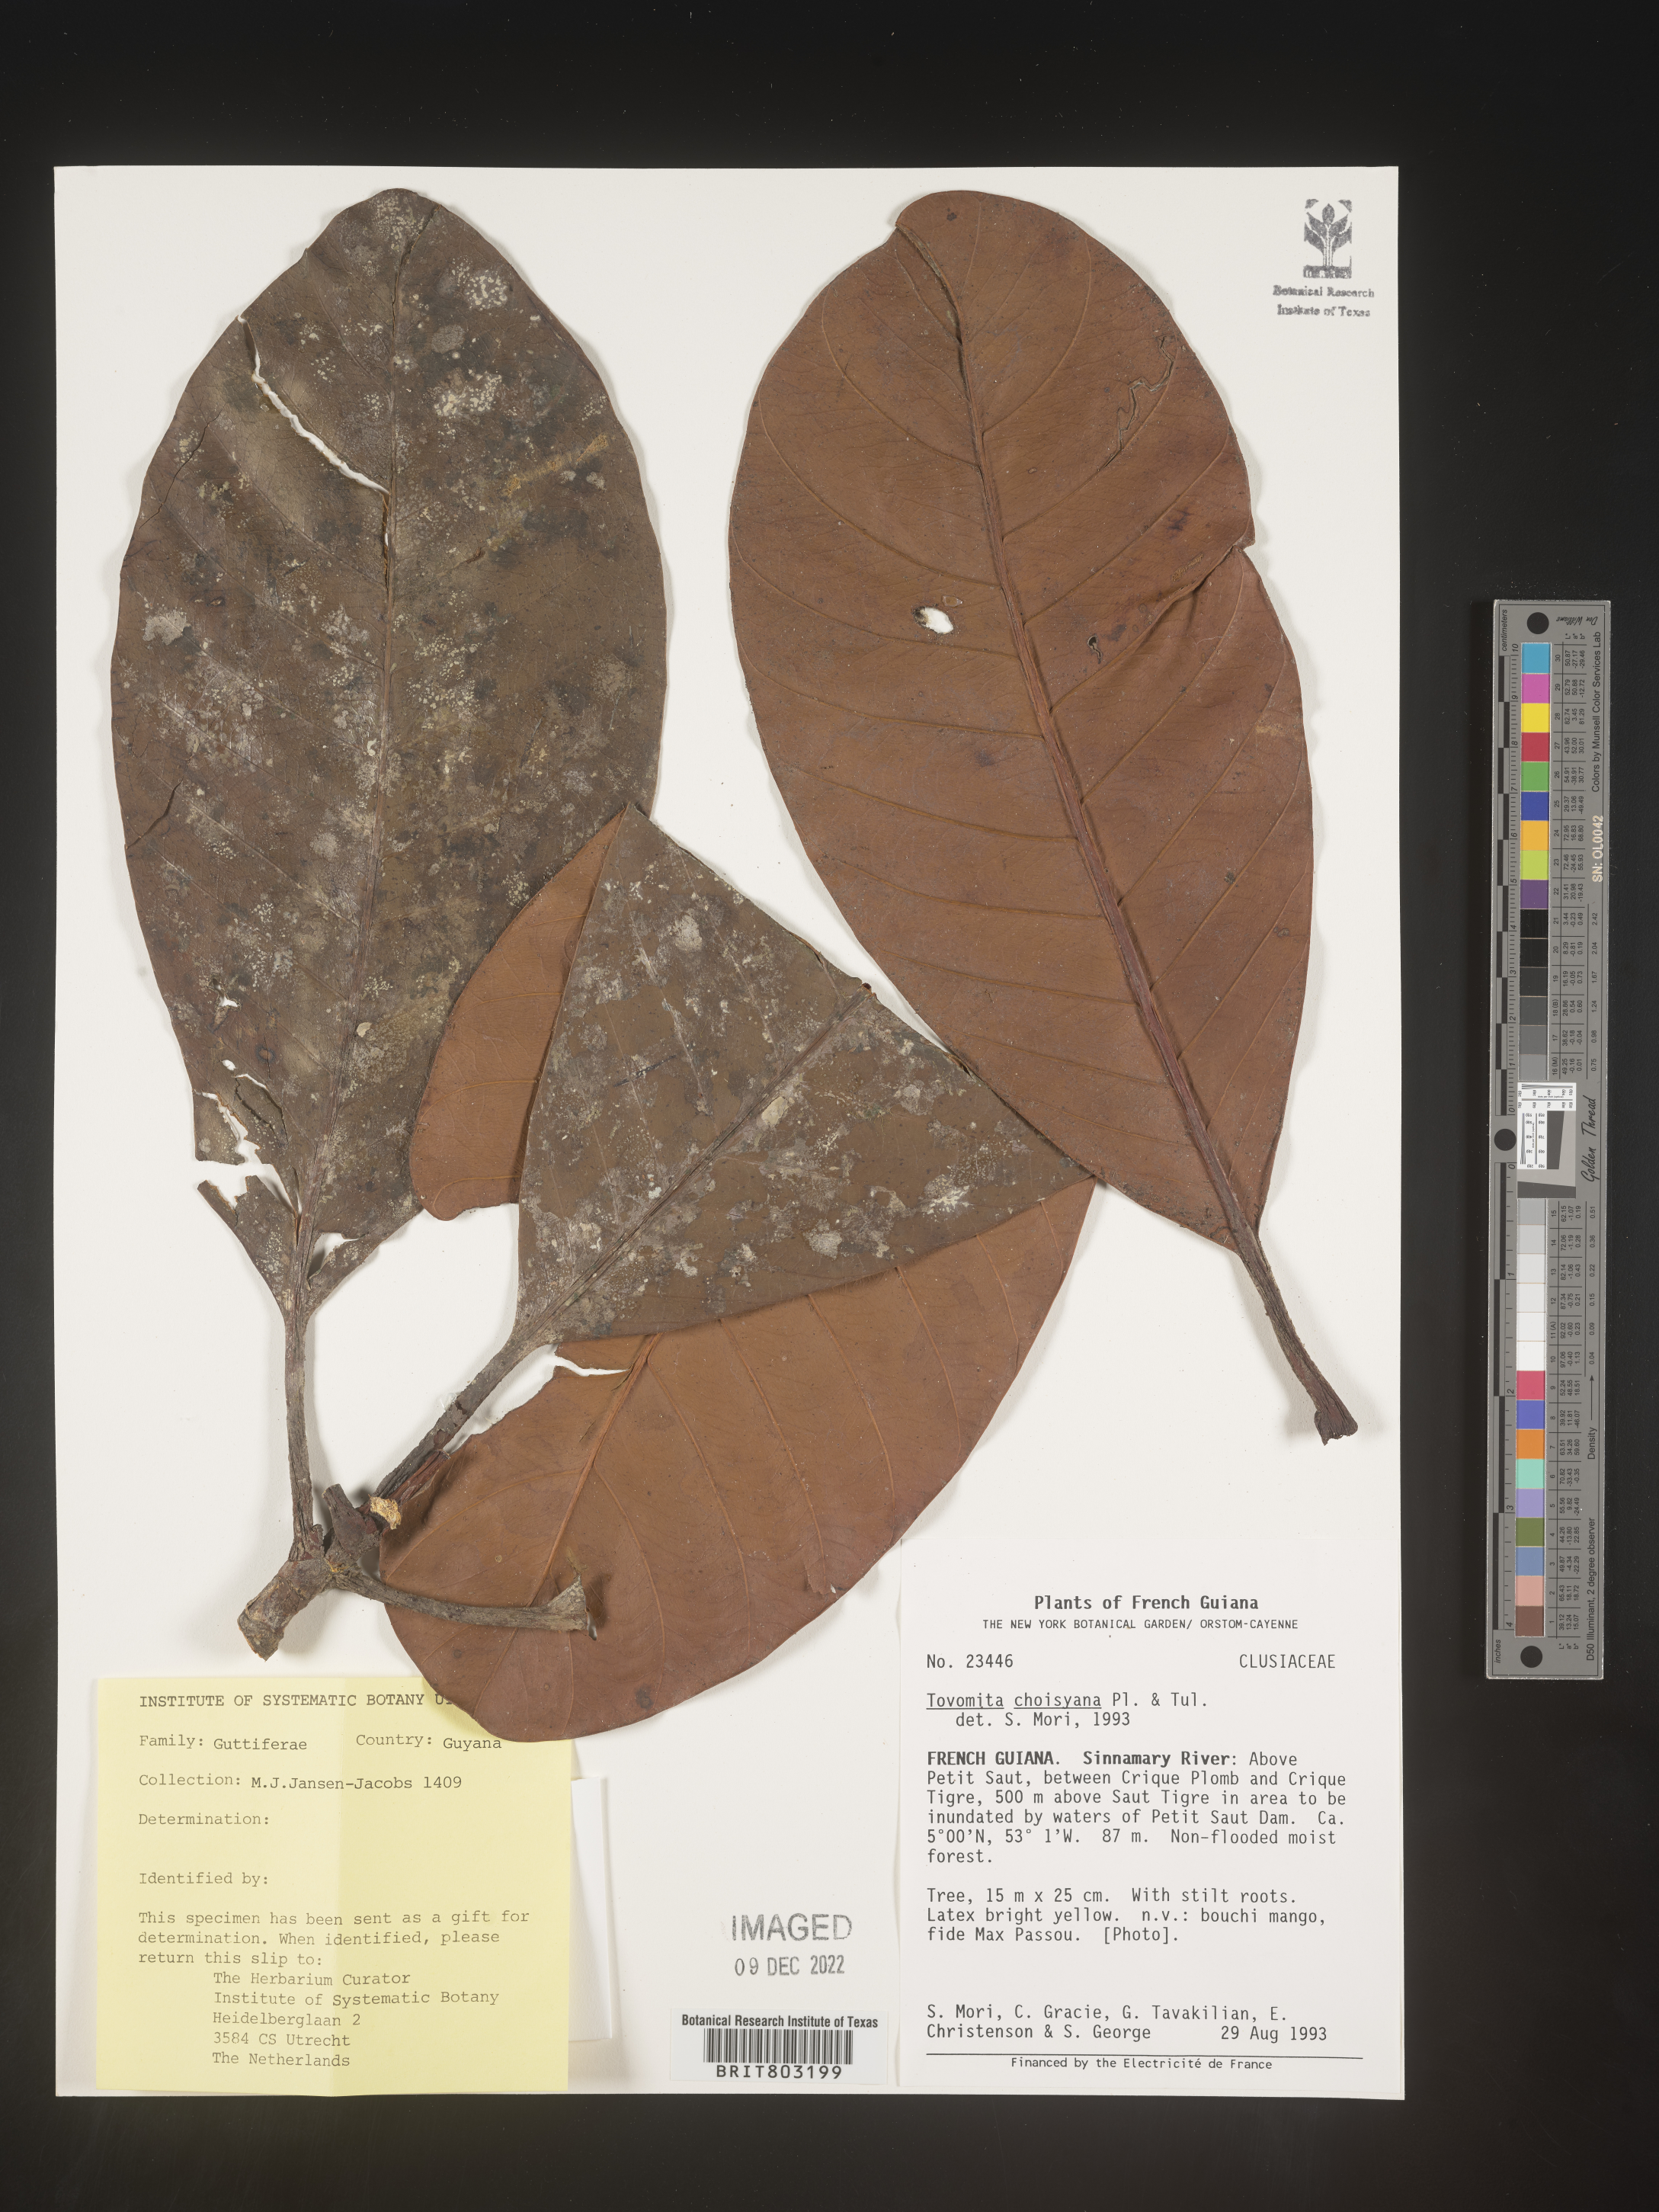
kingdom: Plantae
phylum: Tracheophyta
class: Magnoliopsida
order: Malpighiales
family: Clusiaceae
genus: Tovomita
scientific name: Tovomita
